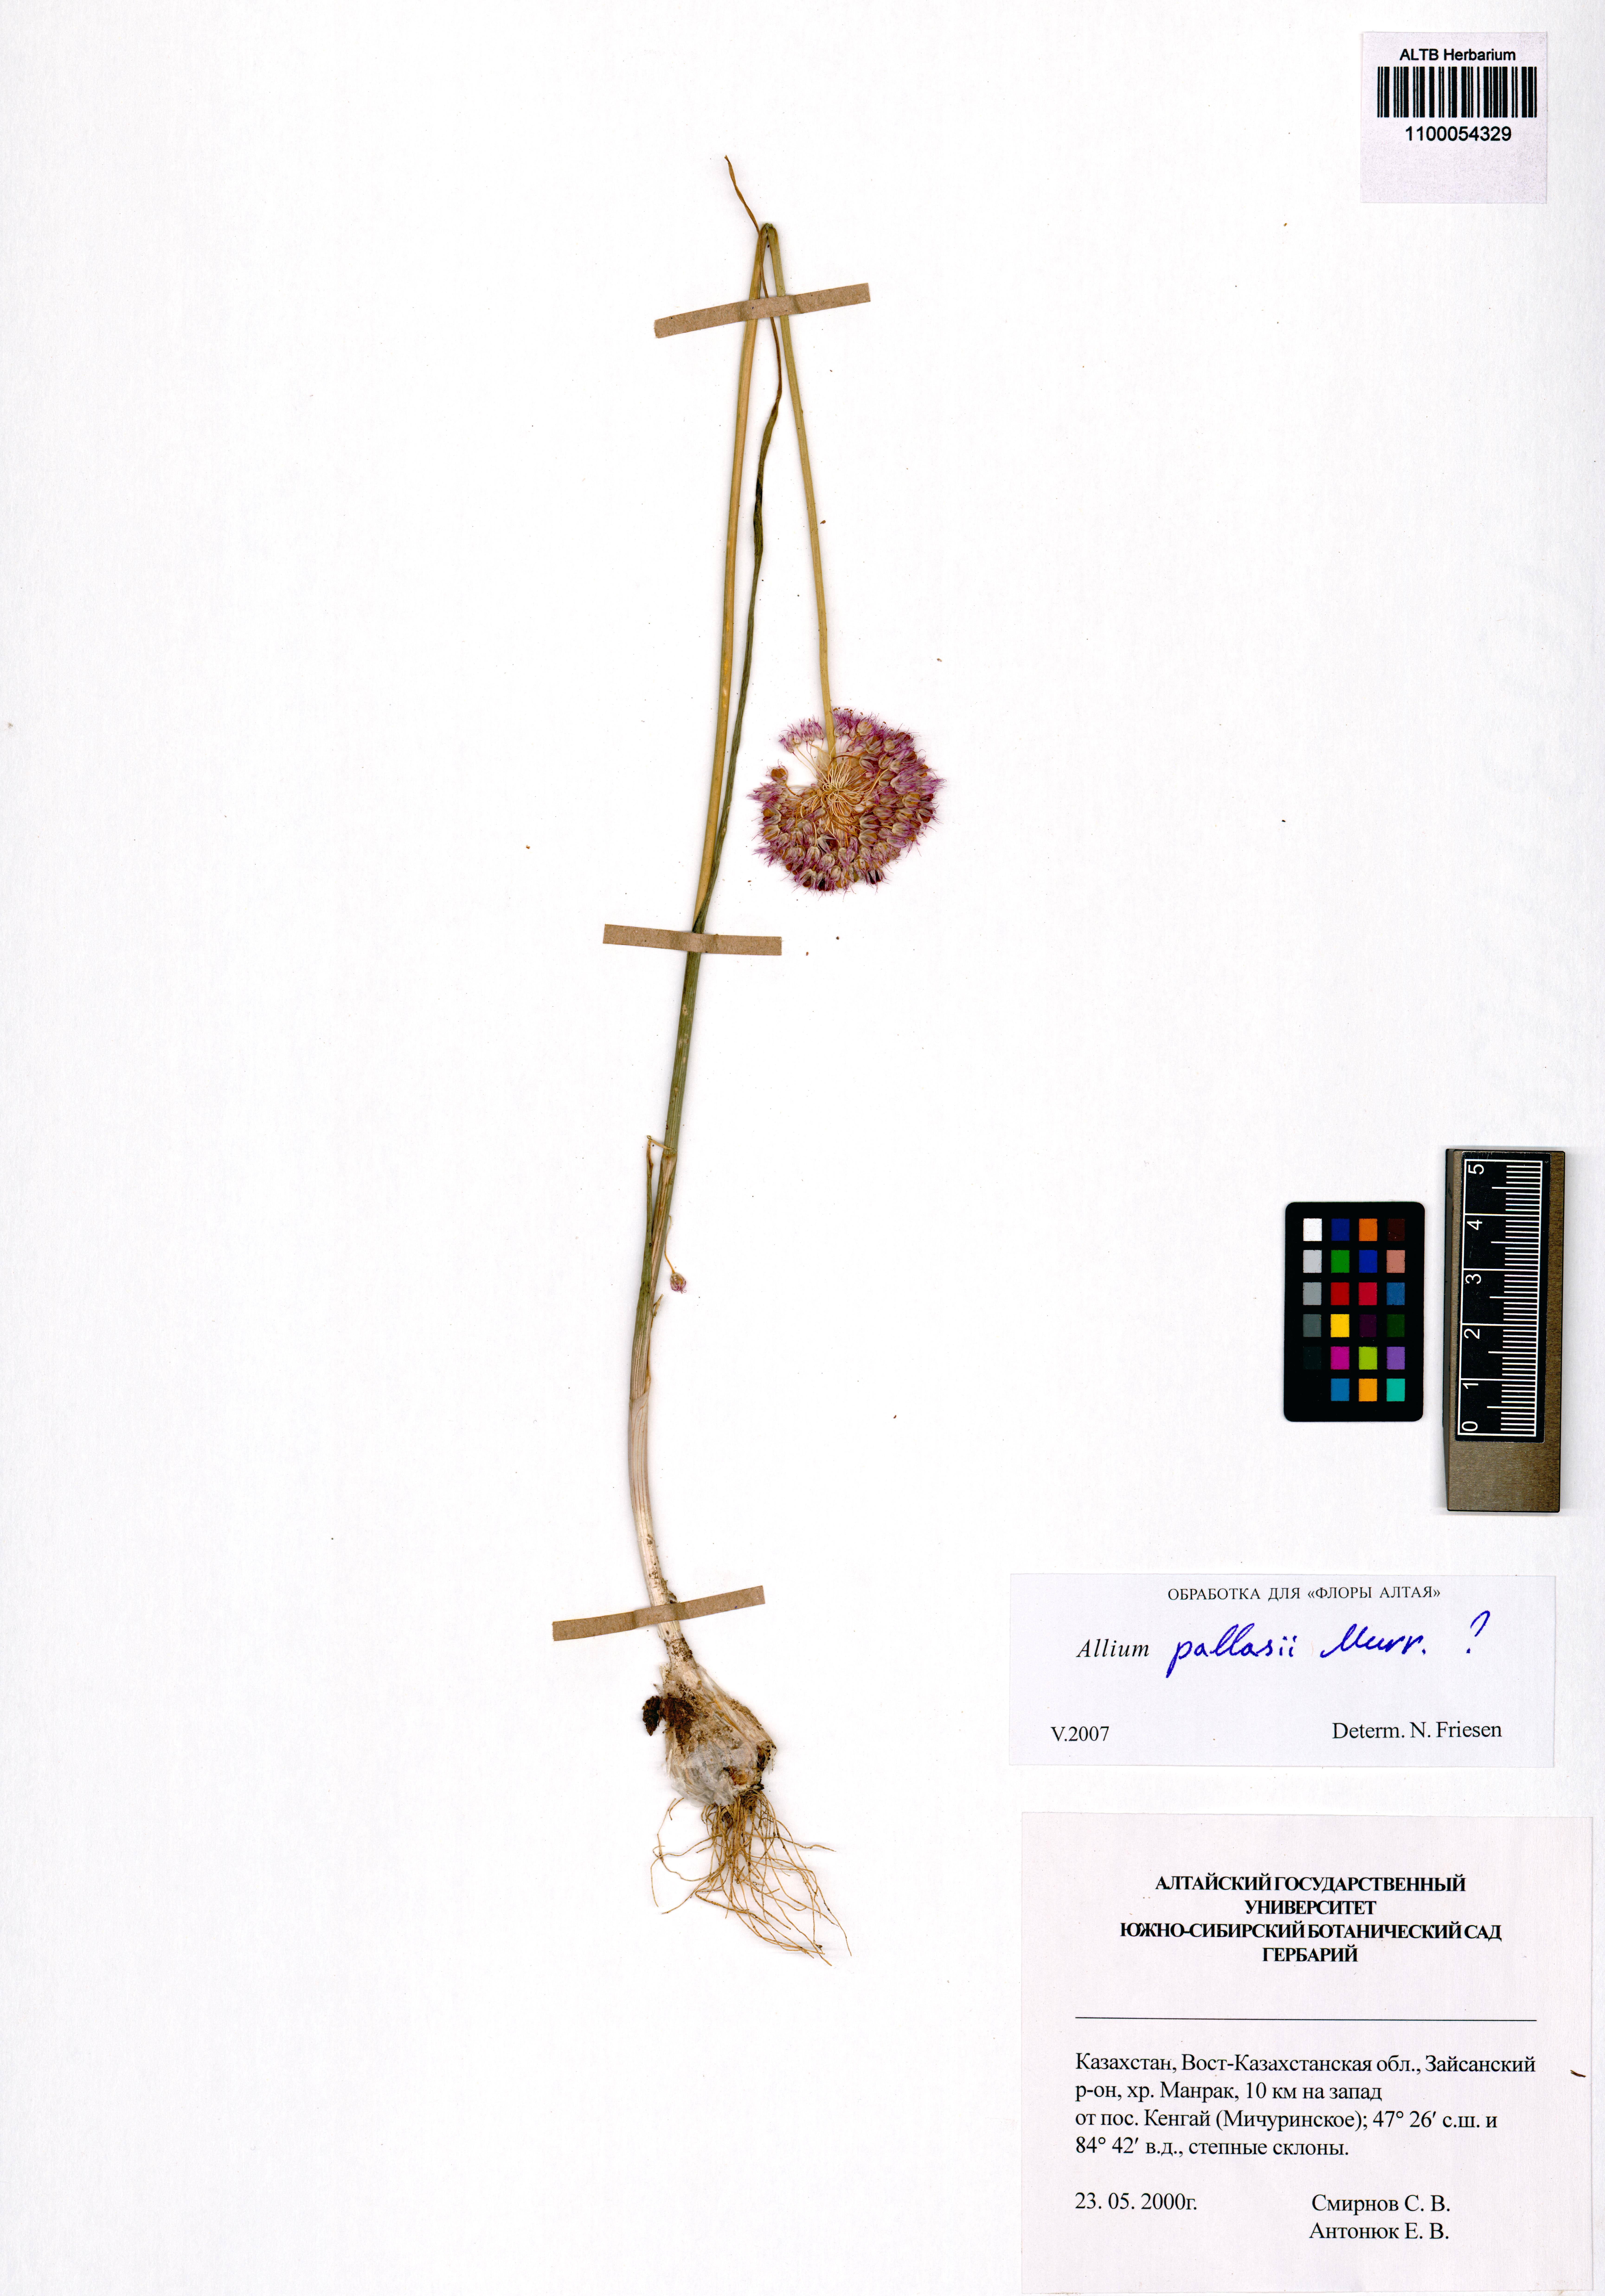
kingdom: Plantae
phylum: Tracheophyta
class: Liliopsida
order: Asparagales
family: Amaryllidaceae
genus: Allium
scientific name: Allium pallasii
